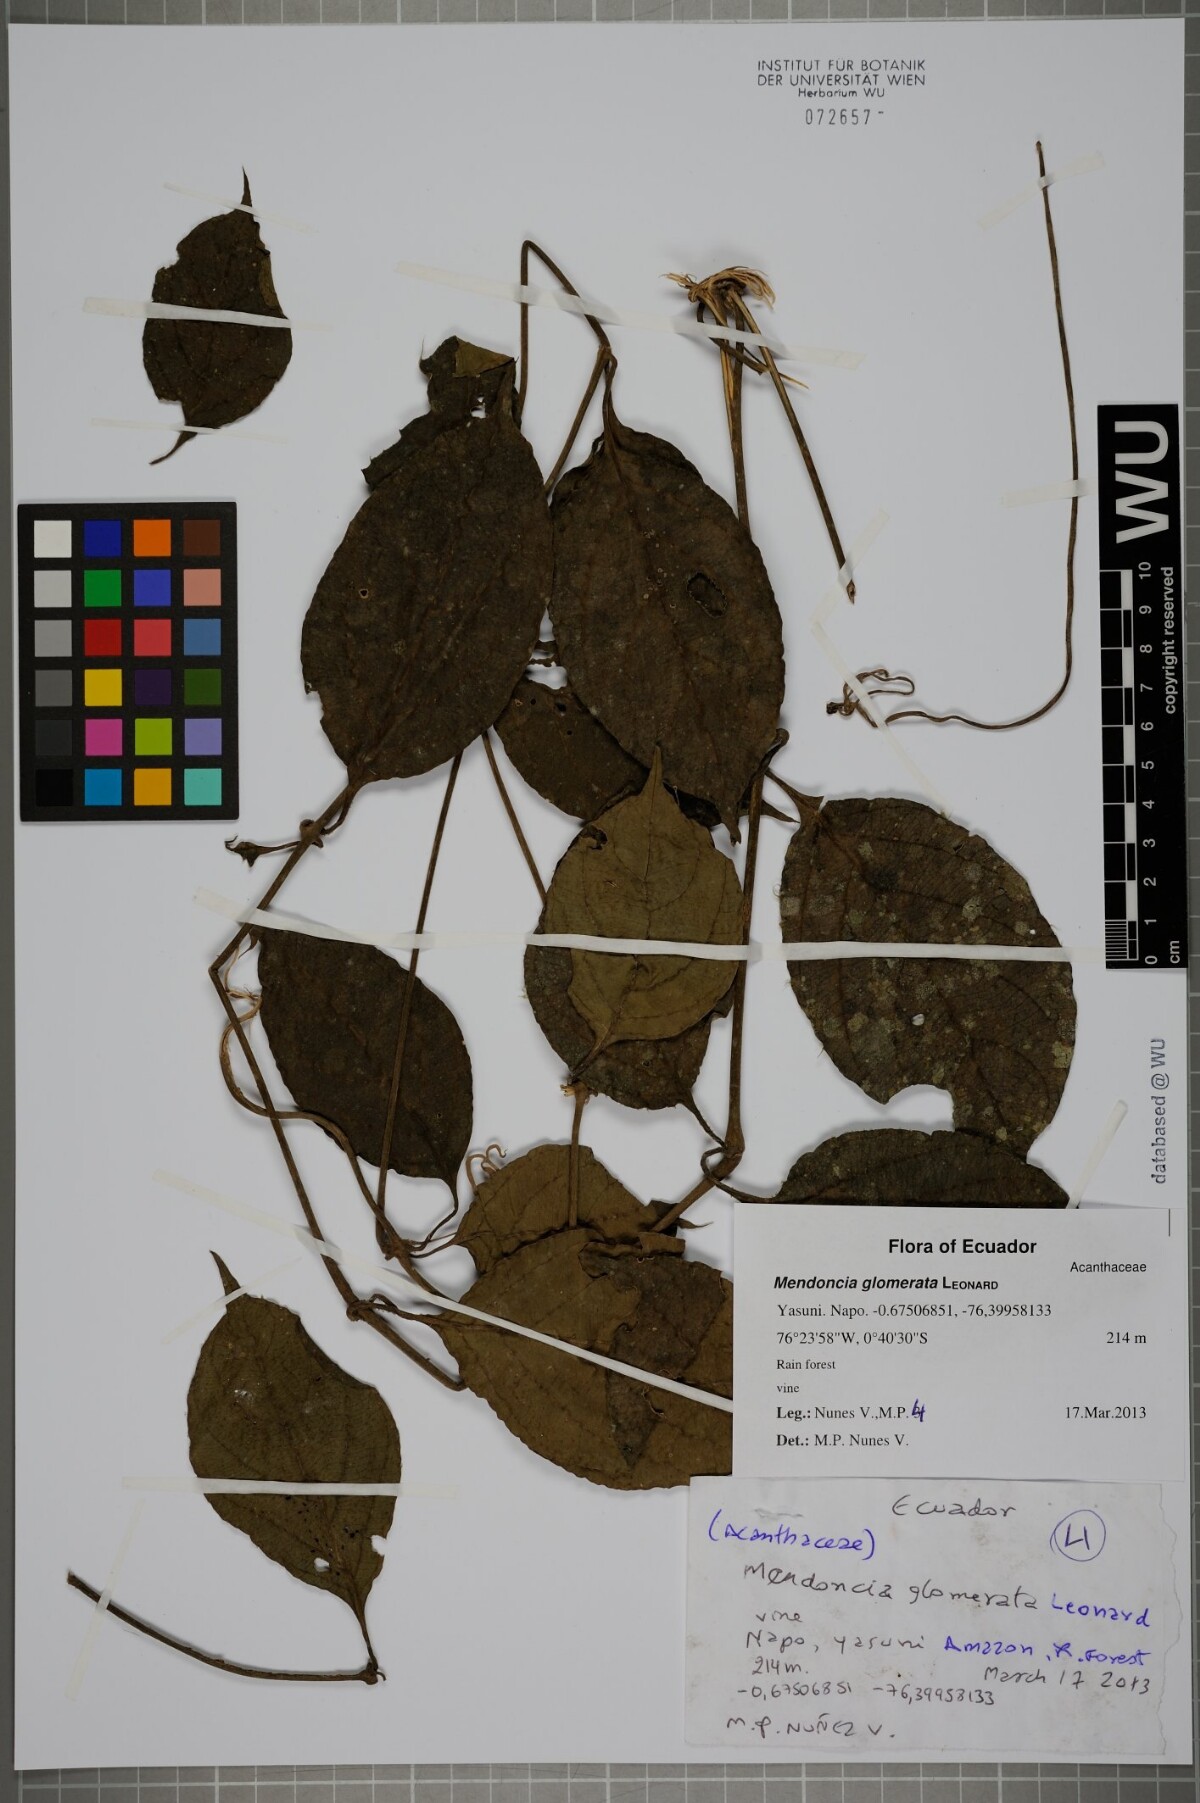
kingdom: Plantae
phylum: Tracheophyta
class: Magnoliopsida
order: Lamiales
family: Acanthaceae
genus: Mendoncia
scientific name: Mendoncia glomerata
